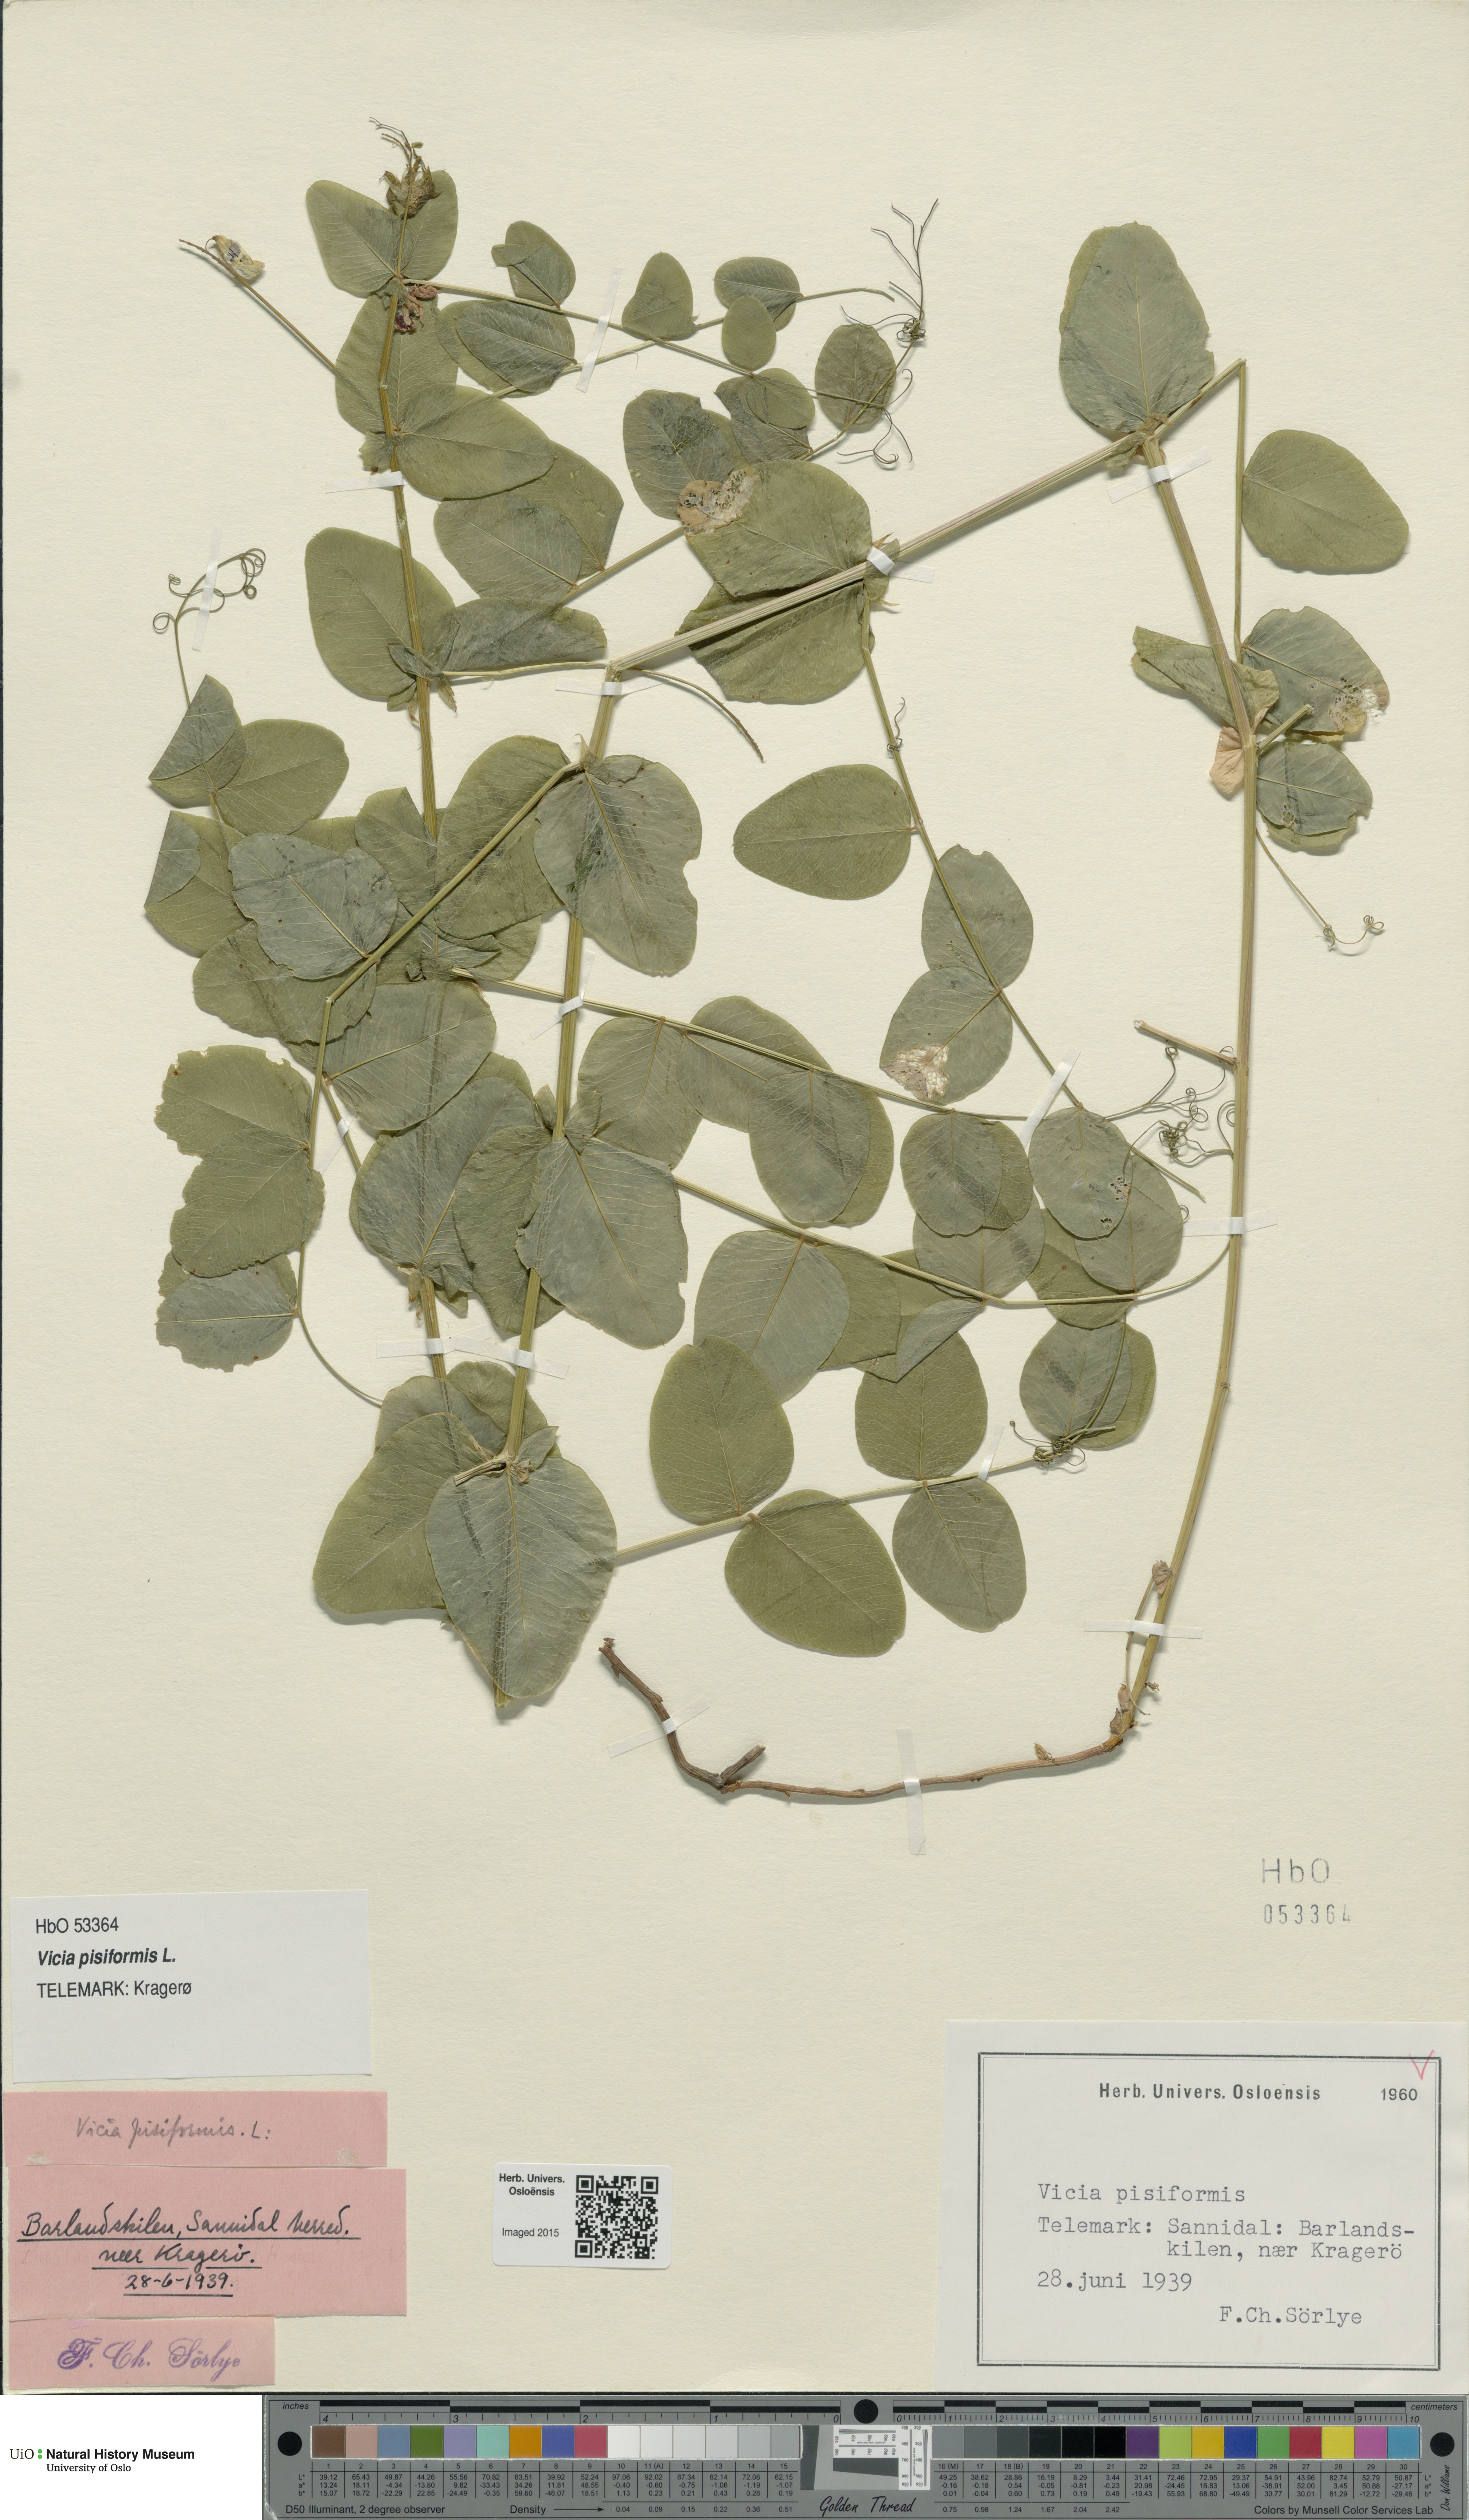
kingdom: Plantae
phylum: Tracheophyta
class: Magnoliopsida
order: Fabales
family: Fabaceae
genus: Vicia
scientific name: Vicia pisiformis
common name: Pale-flower vetch
